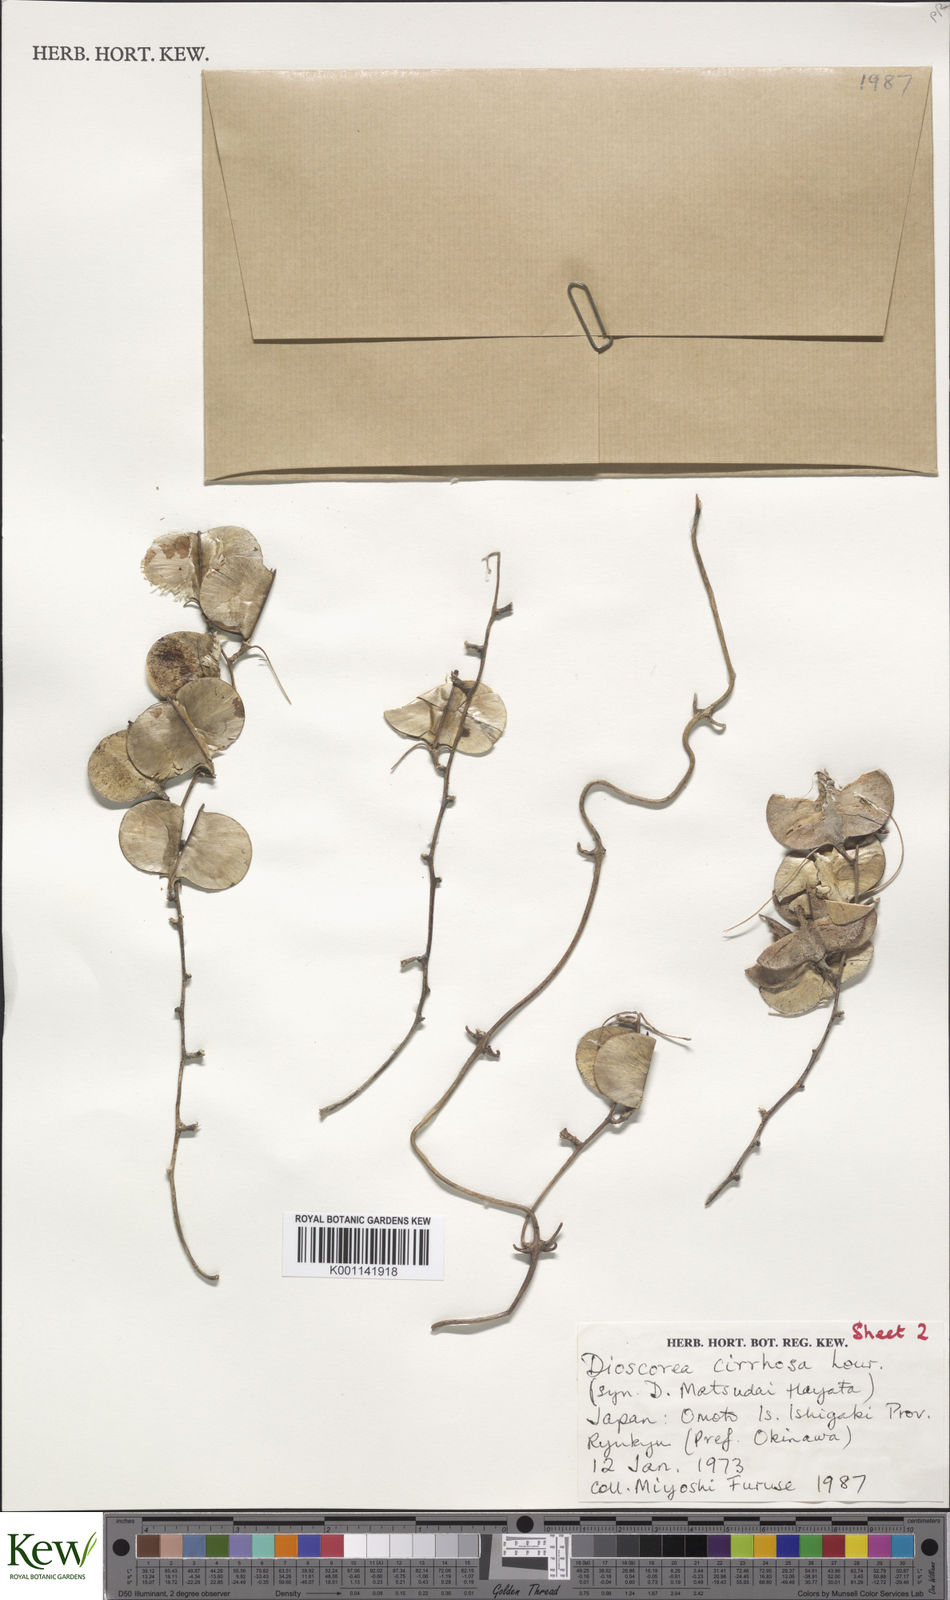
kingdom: Plantae
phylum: Tracheophyta
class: Liliopsida
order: Dioscoreales
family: Dioscoreaceae
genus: Dioscorea
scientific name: Dioscorea cirrhosa
